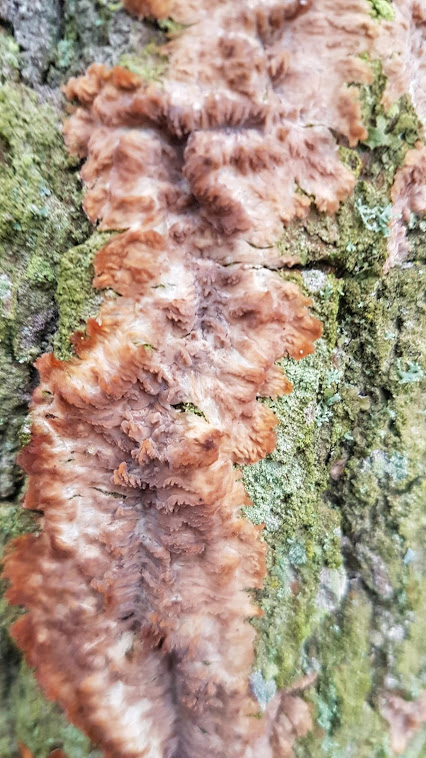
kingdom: Fungi
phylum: Basidiomycota
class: Agaricomycetes
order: Polyporales
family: Meruliaceae
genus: Phlebia
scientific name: Phlebia radiata
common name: stråle-åresvamp
